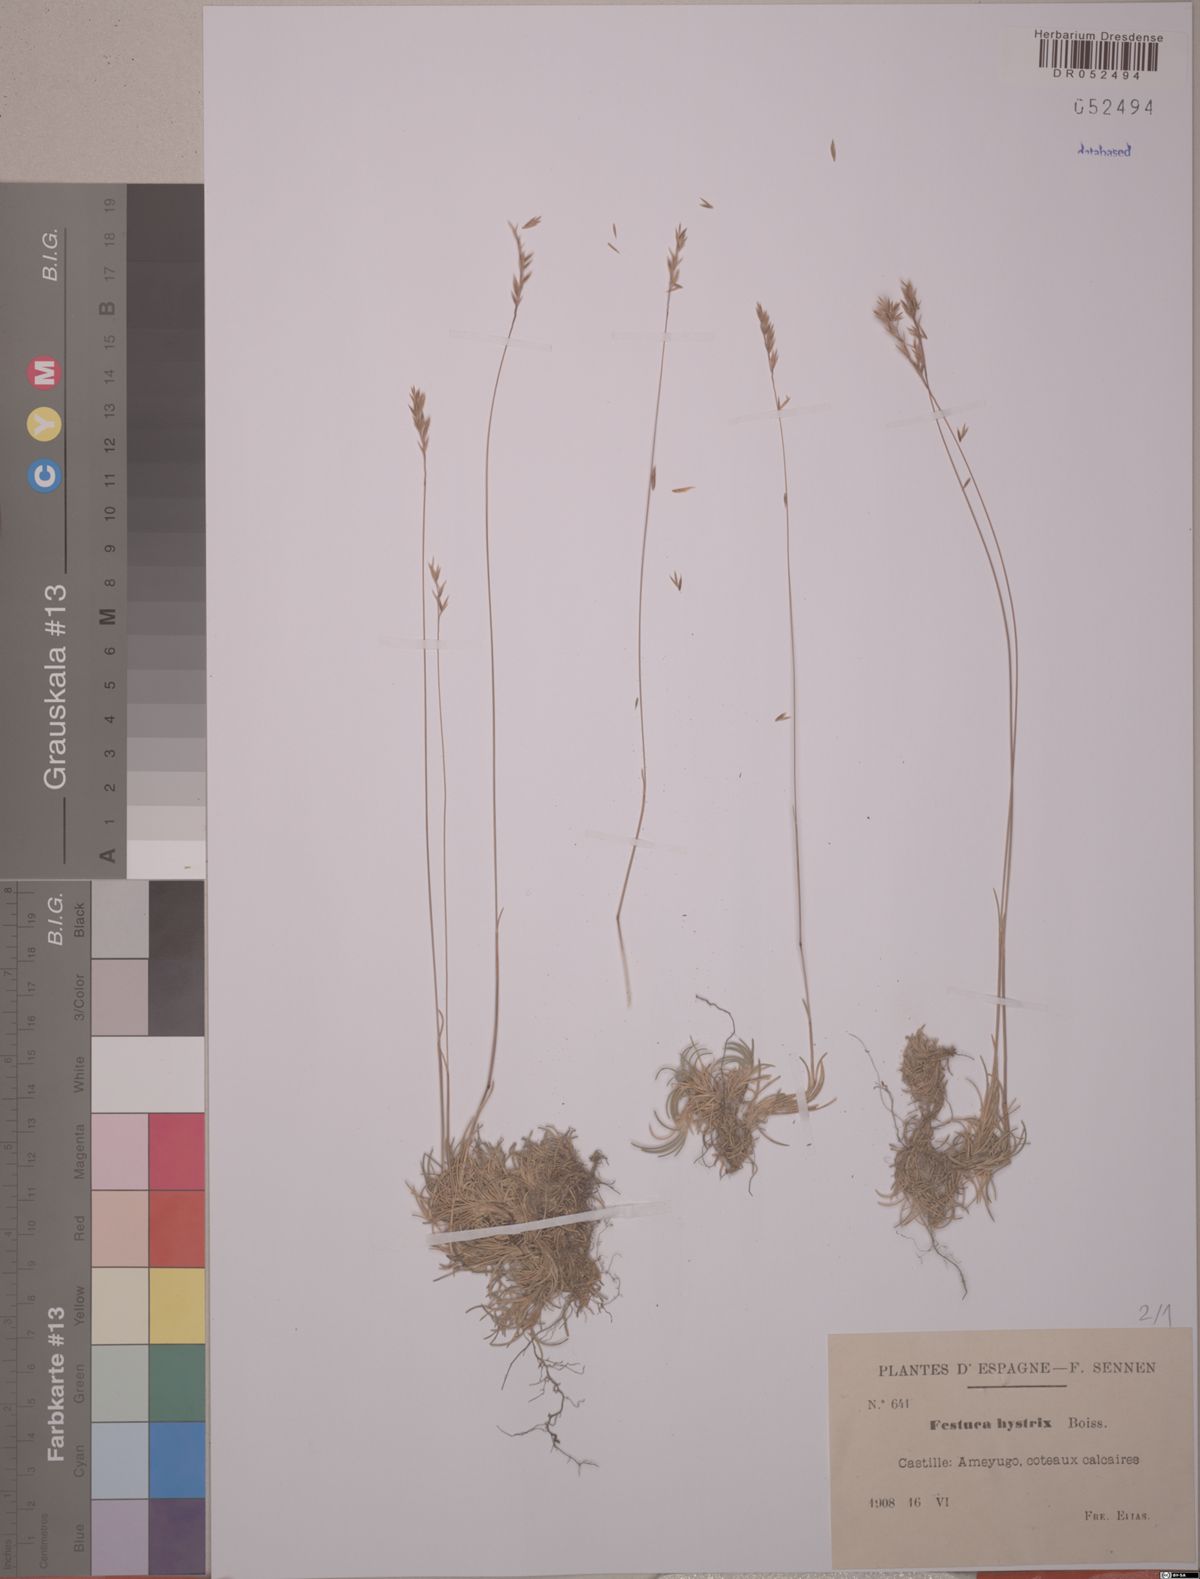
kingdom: Plantae
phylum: Tracheophyta
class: Liliopsida
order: Poales
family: Poaceae
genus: Festuca
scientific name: Festuca hystrix
